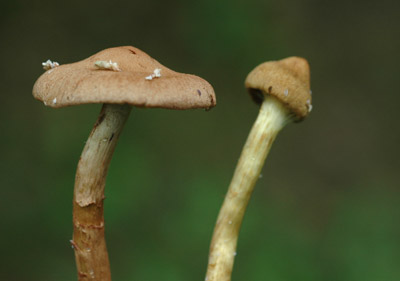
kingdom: Fungi
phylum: Basidiomycota
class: Agaricomycetes
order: Agaricales
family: Cortinariaceae
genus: Cortinarius
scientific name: Cortinarius
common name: gulbladet slørhat
